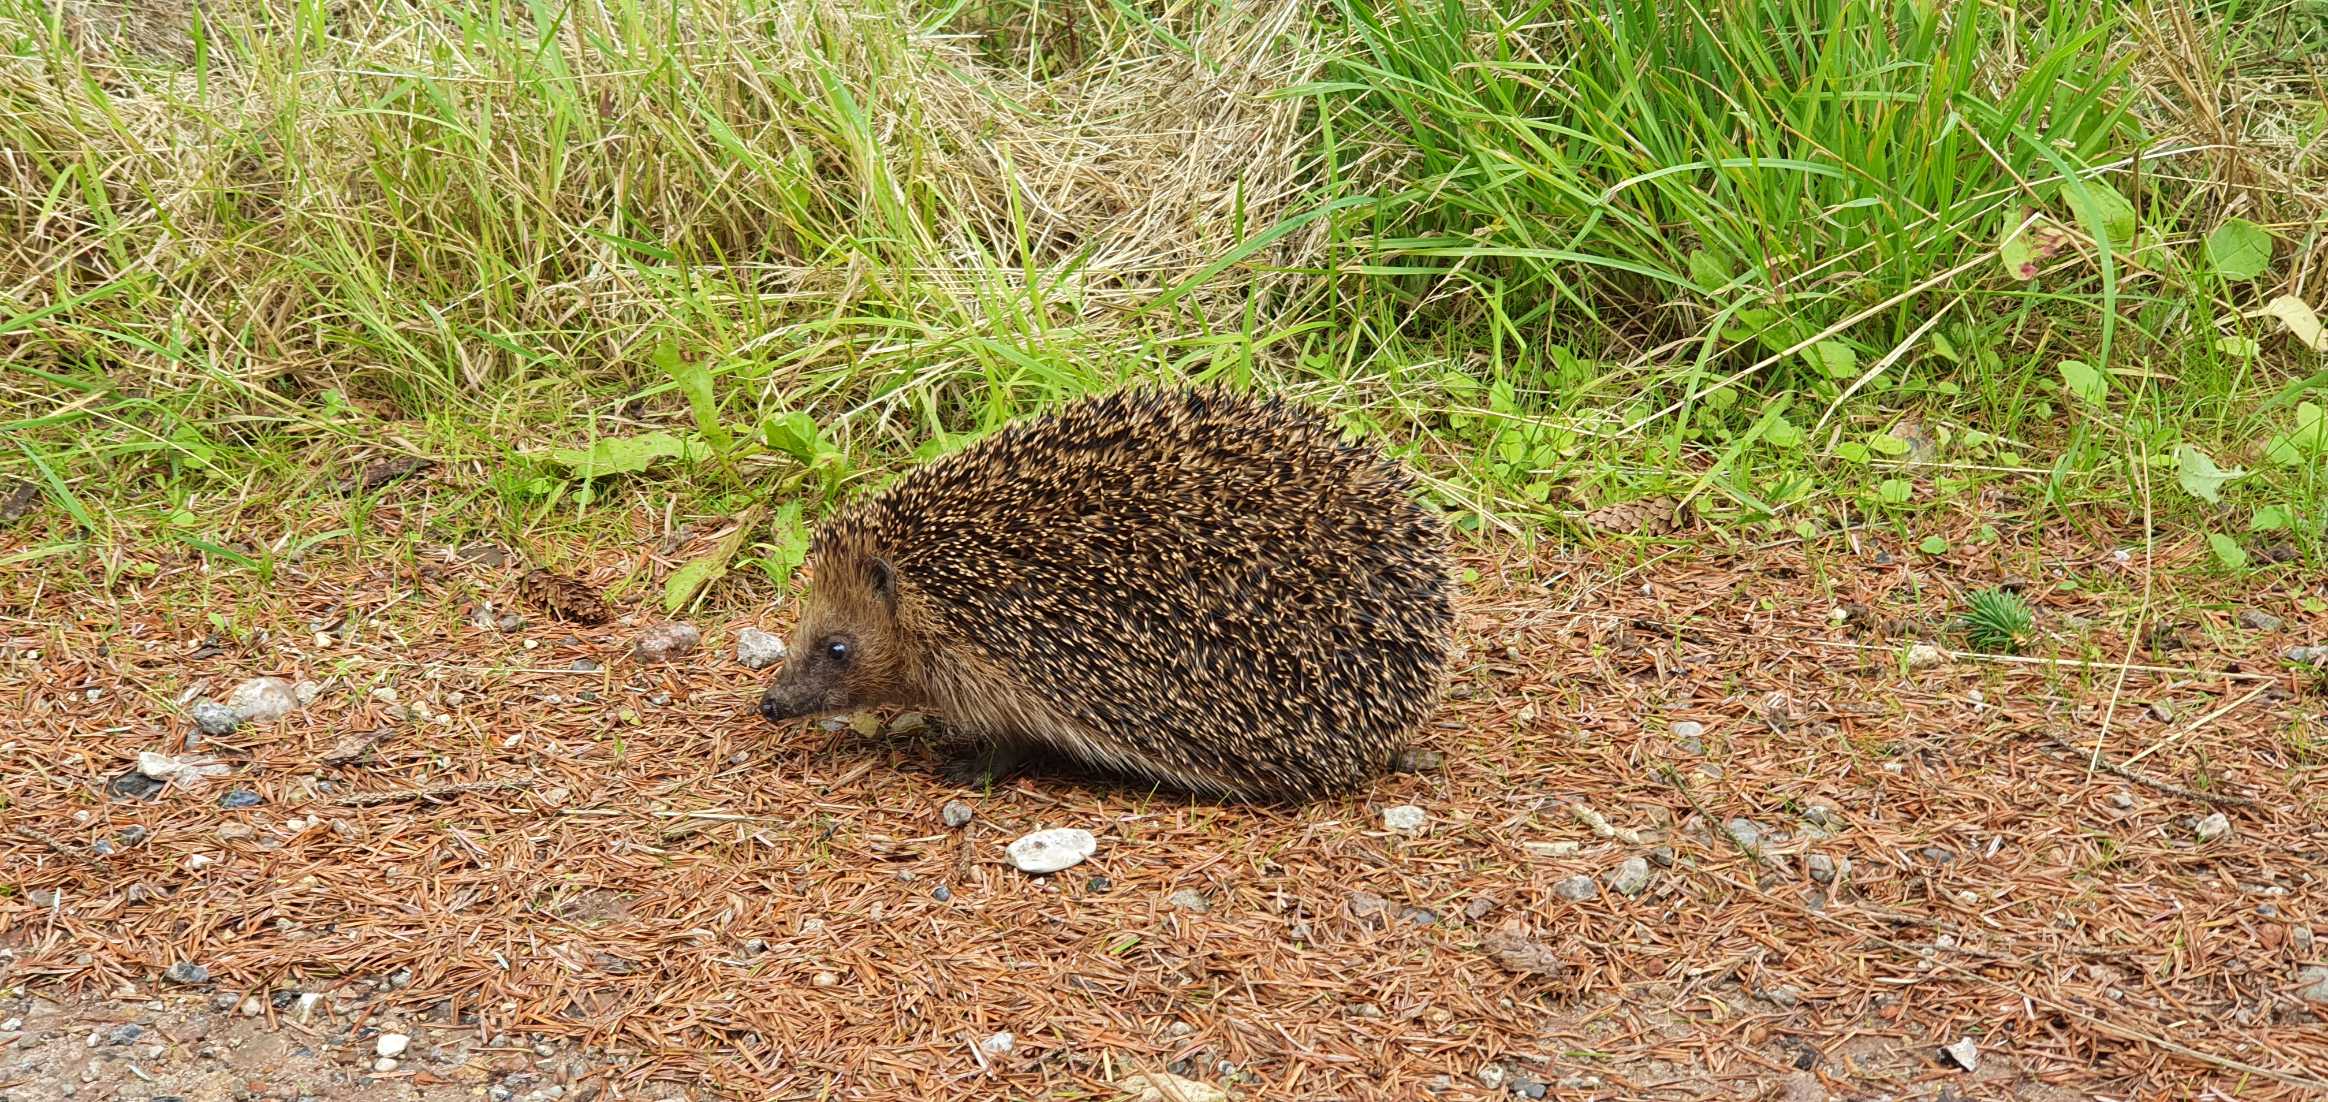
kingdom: Animalia
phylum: Chordata
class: Mammalia
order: Erinaceomorpha
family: Erinaceidae
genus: Erinaceus
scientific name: Erinaceus europaeus
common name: Pindsvin
